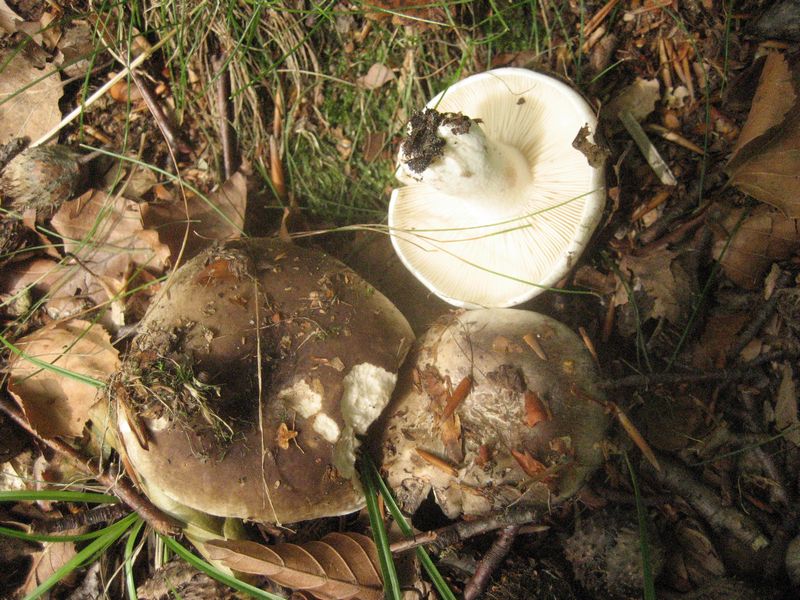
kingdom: Fungi
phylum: Basidiomycota
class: Agaricomycetes
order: Russulales
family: Russulaceae
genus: Russula
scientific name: Russula acrifolia
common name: skarpbladet skørhat
